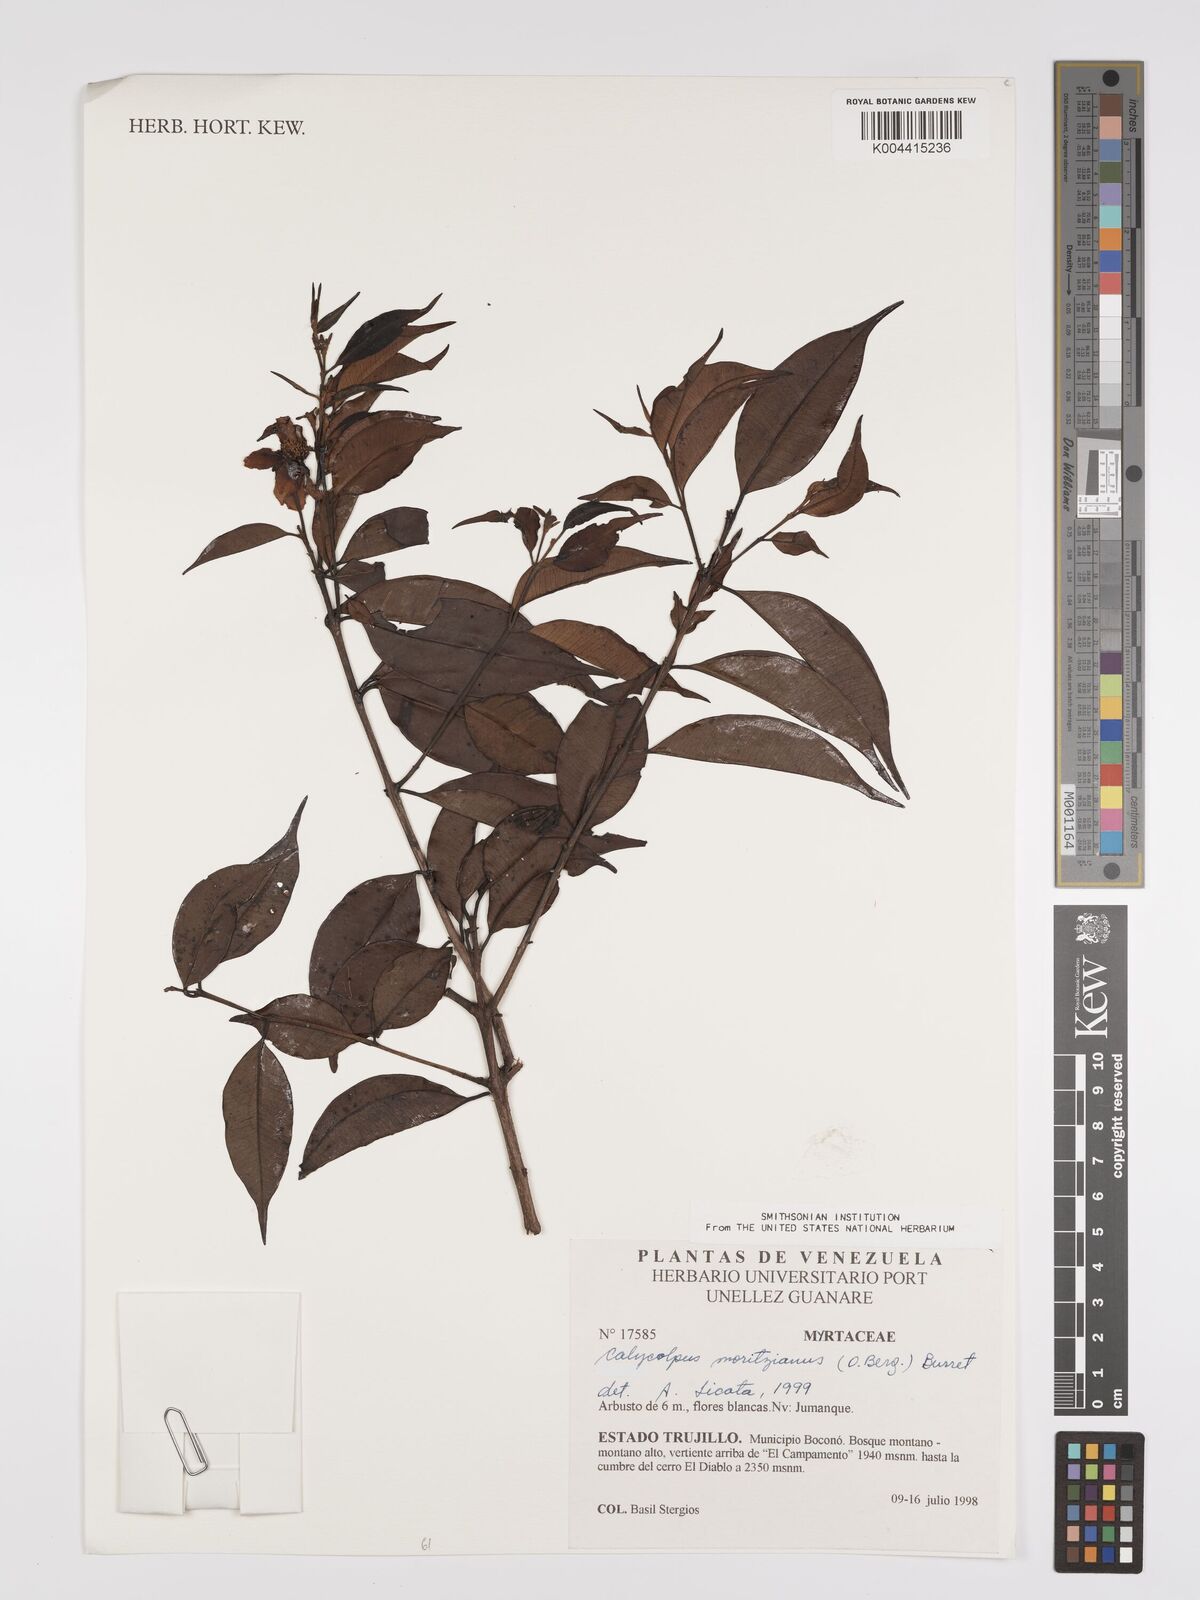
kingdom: Plantae
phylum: Tracheophyta
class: Magnoliopsida
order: Myrtales
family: Myrtaceae
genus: Calycolpus
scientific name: Calycolpus moritzianus
